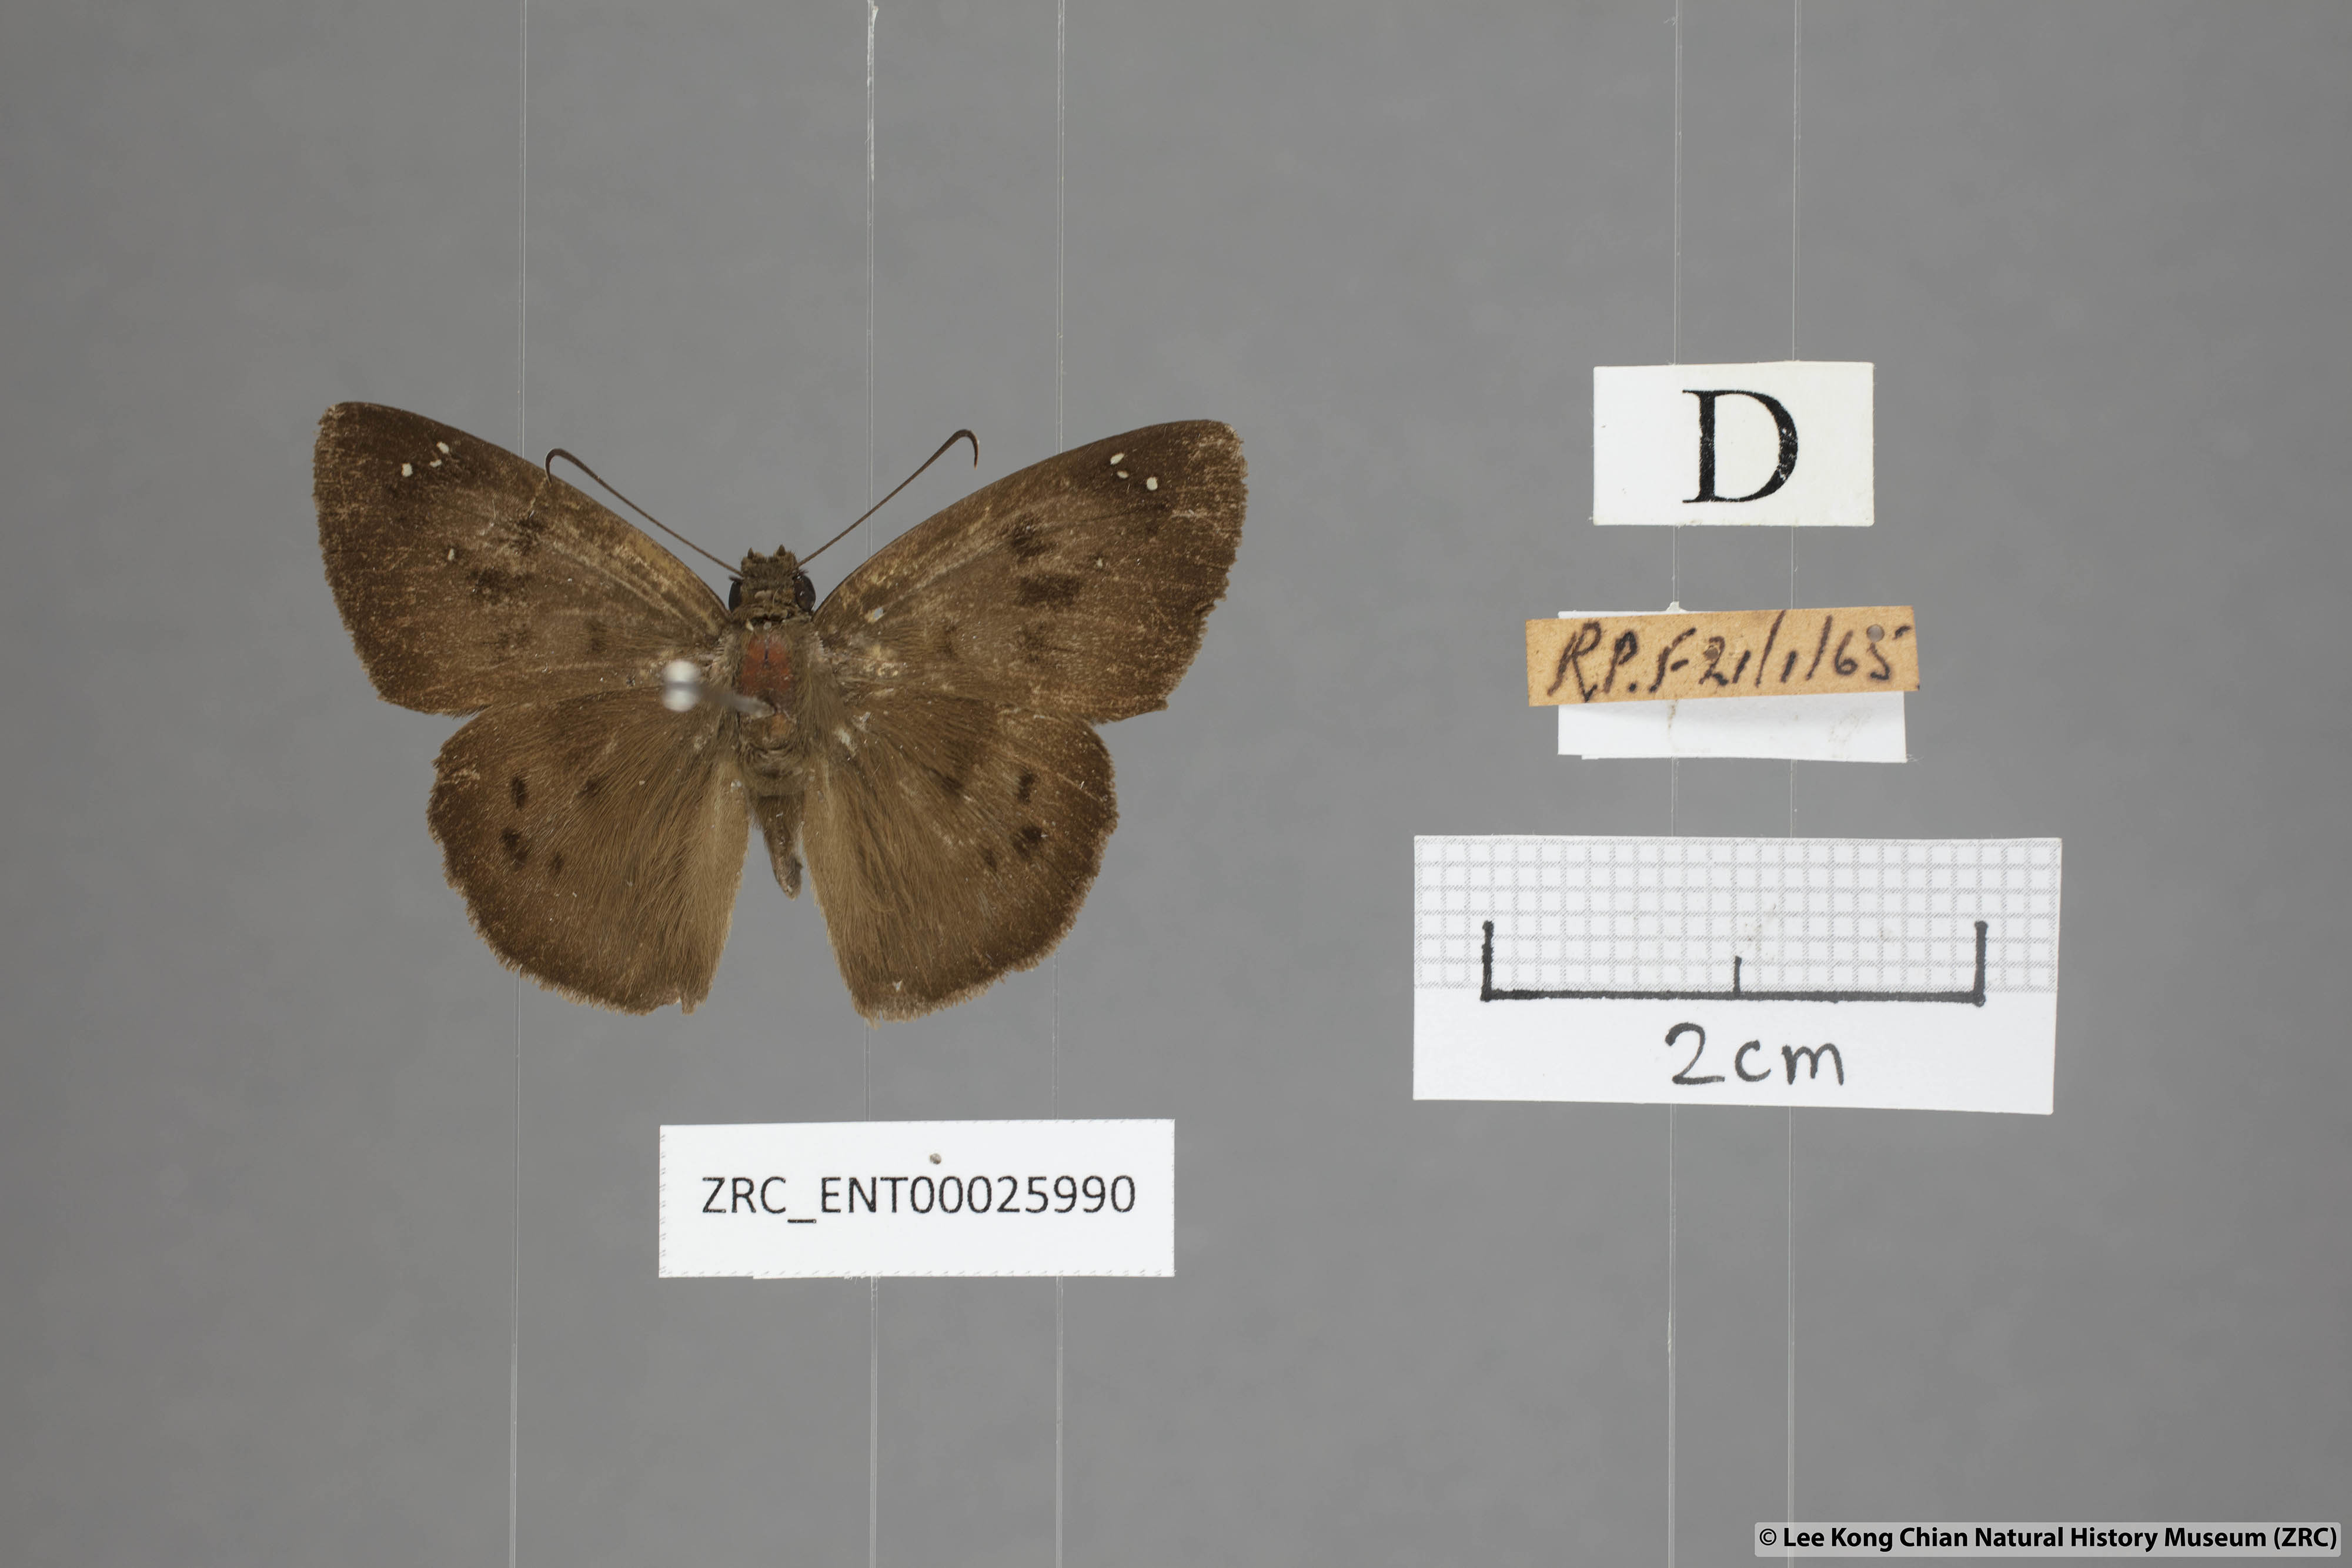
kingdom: Animalia
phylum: Arthropoda
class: Insecta
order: Lepidoptera
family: Hesperiidae
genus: Tagiades
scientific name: Tagiades japetus
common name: Pied flat
